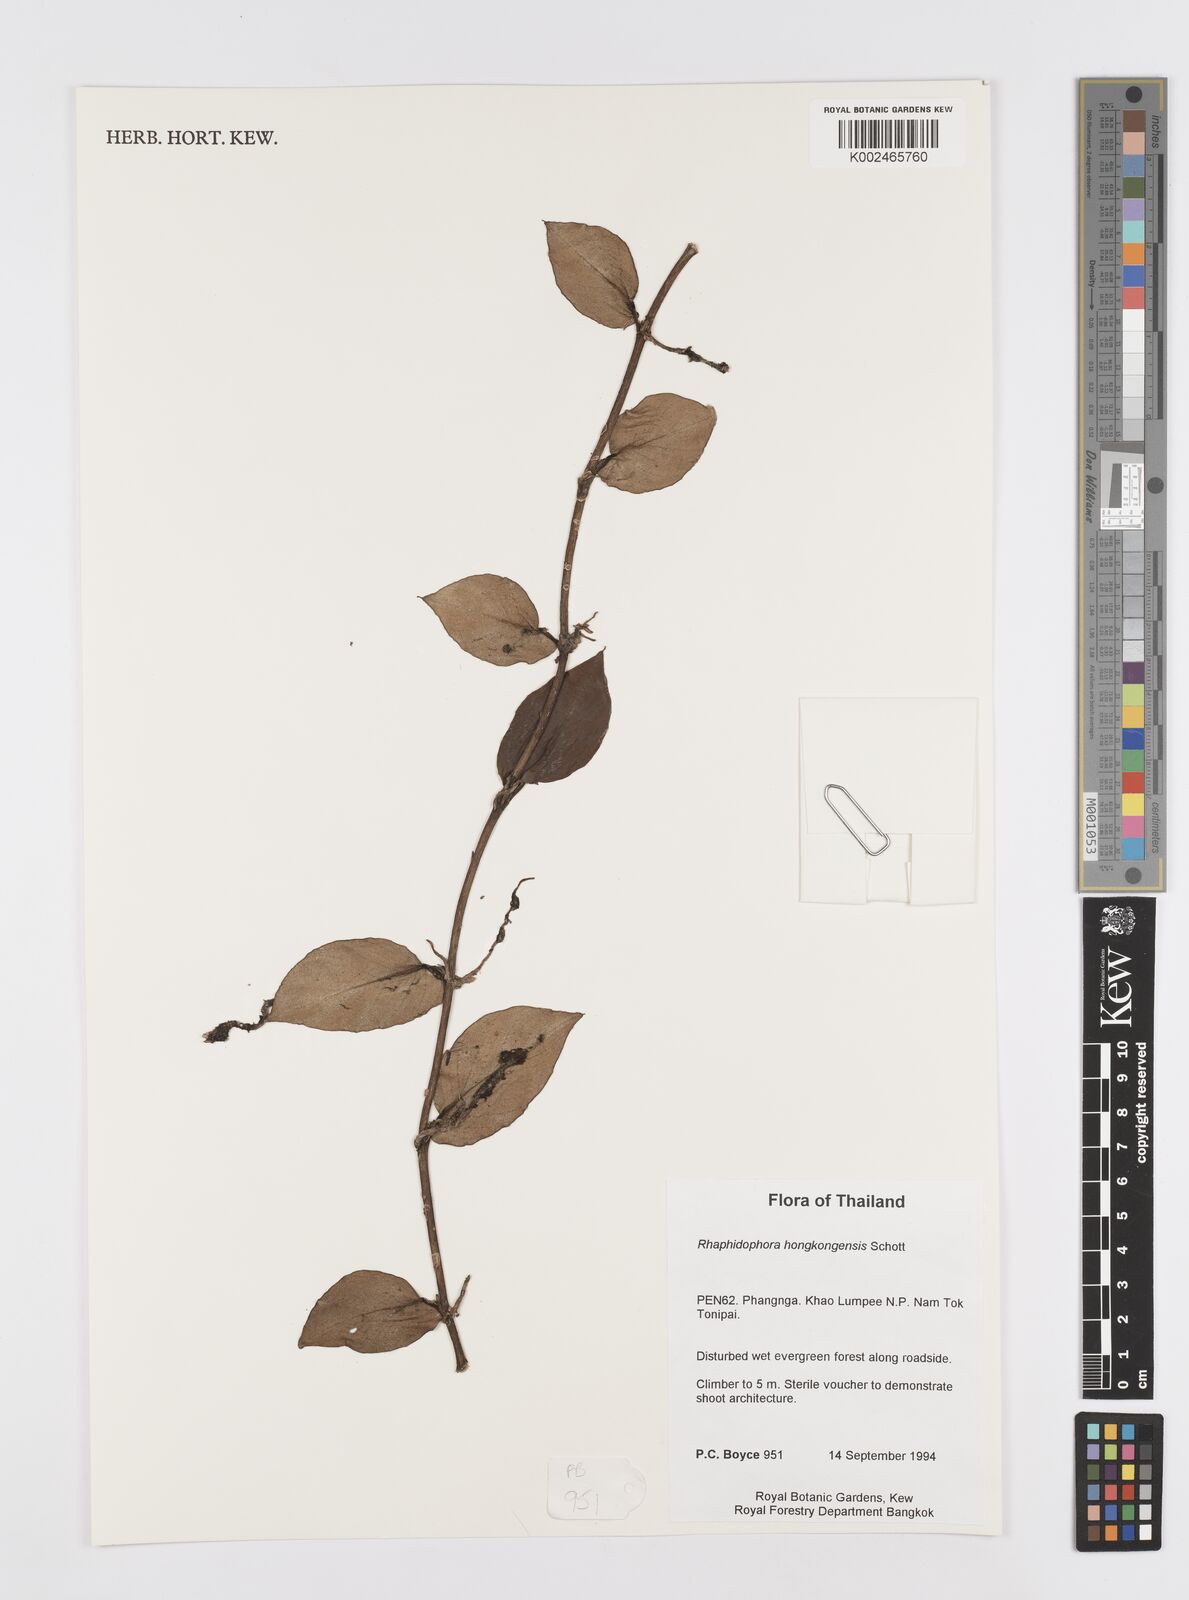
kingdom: Plantae
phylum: Tracheophyta
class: Liliopsida
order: Alismatales
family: Araceae
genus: Rhaphidophora
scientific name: Rhaphidophora
